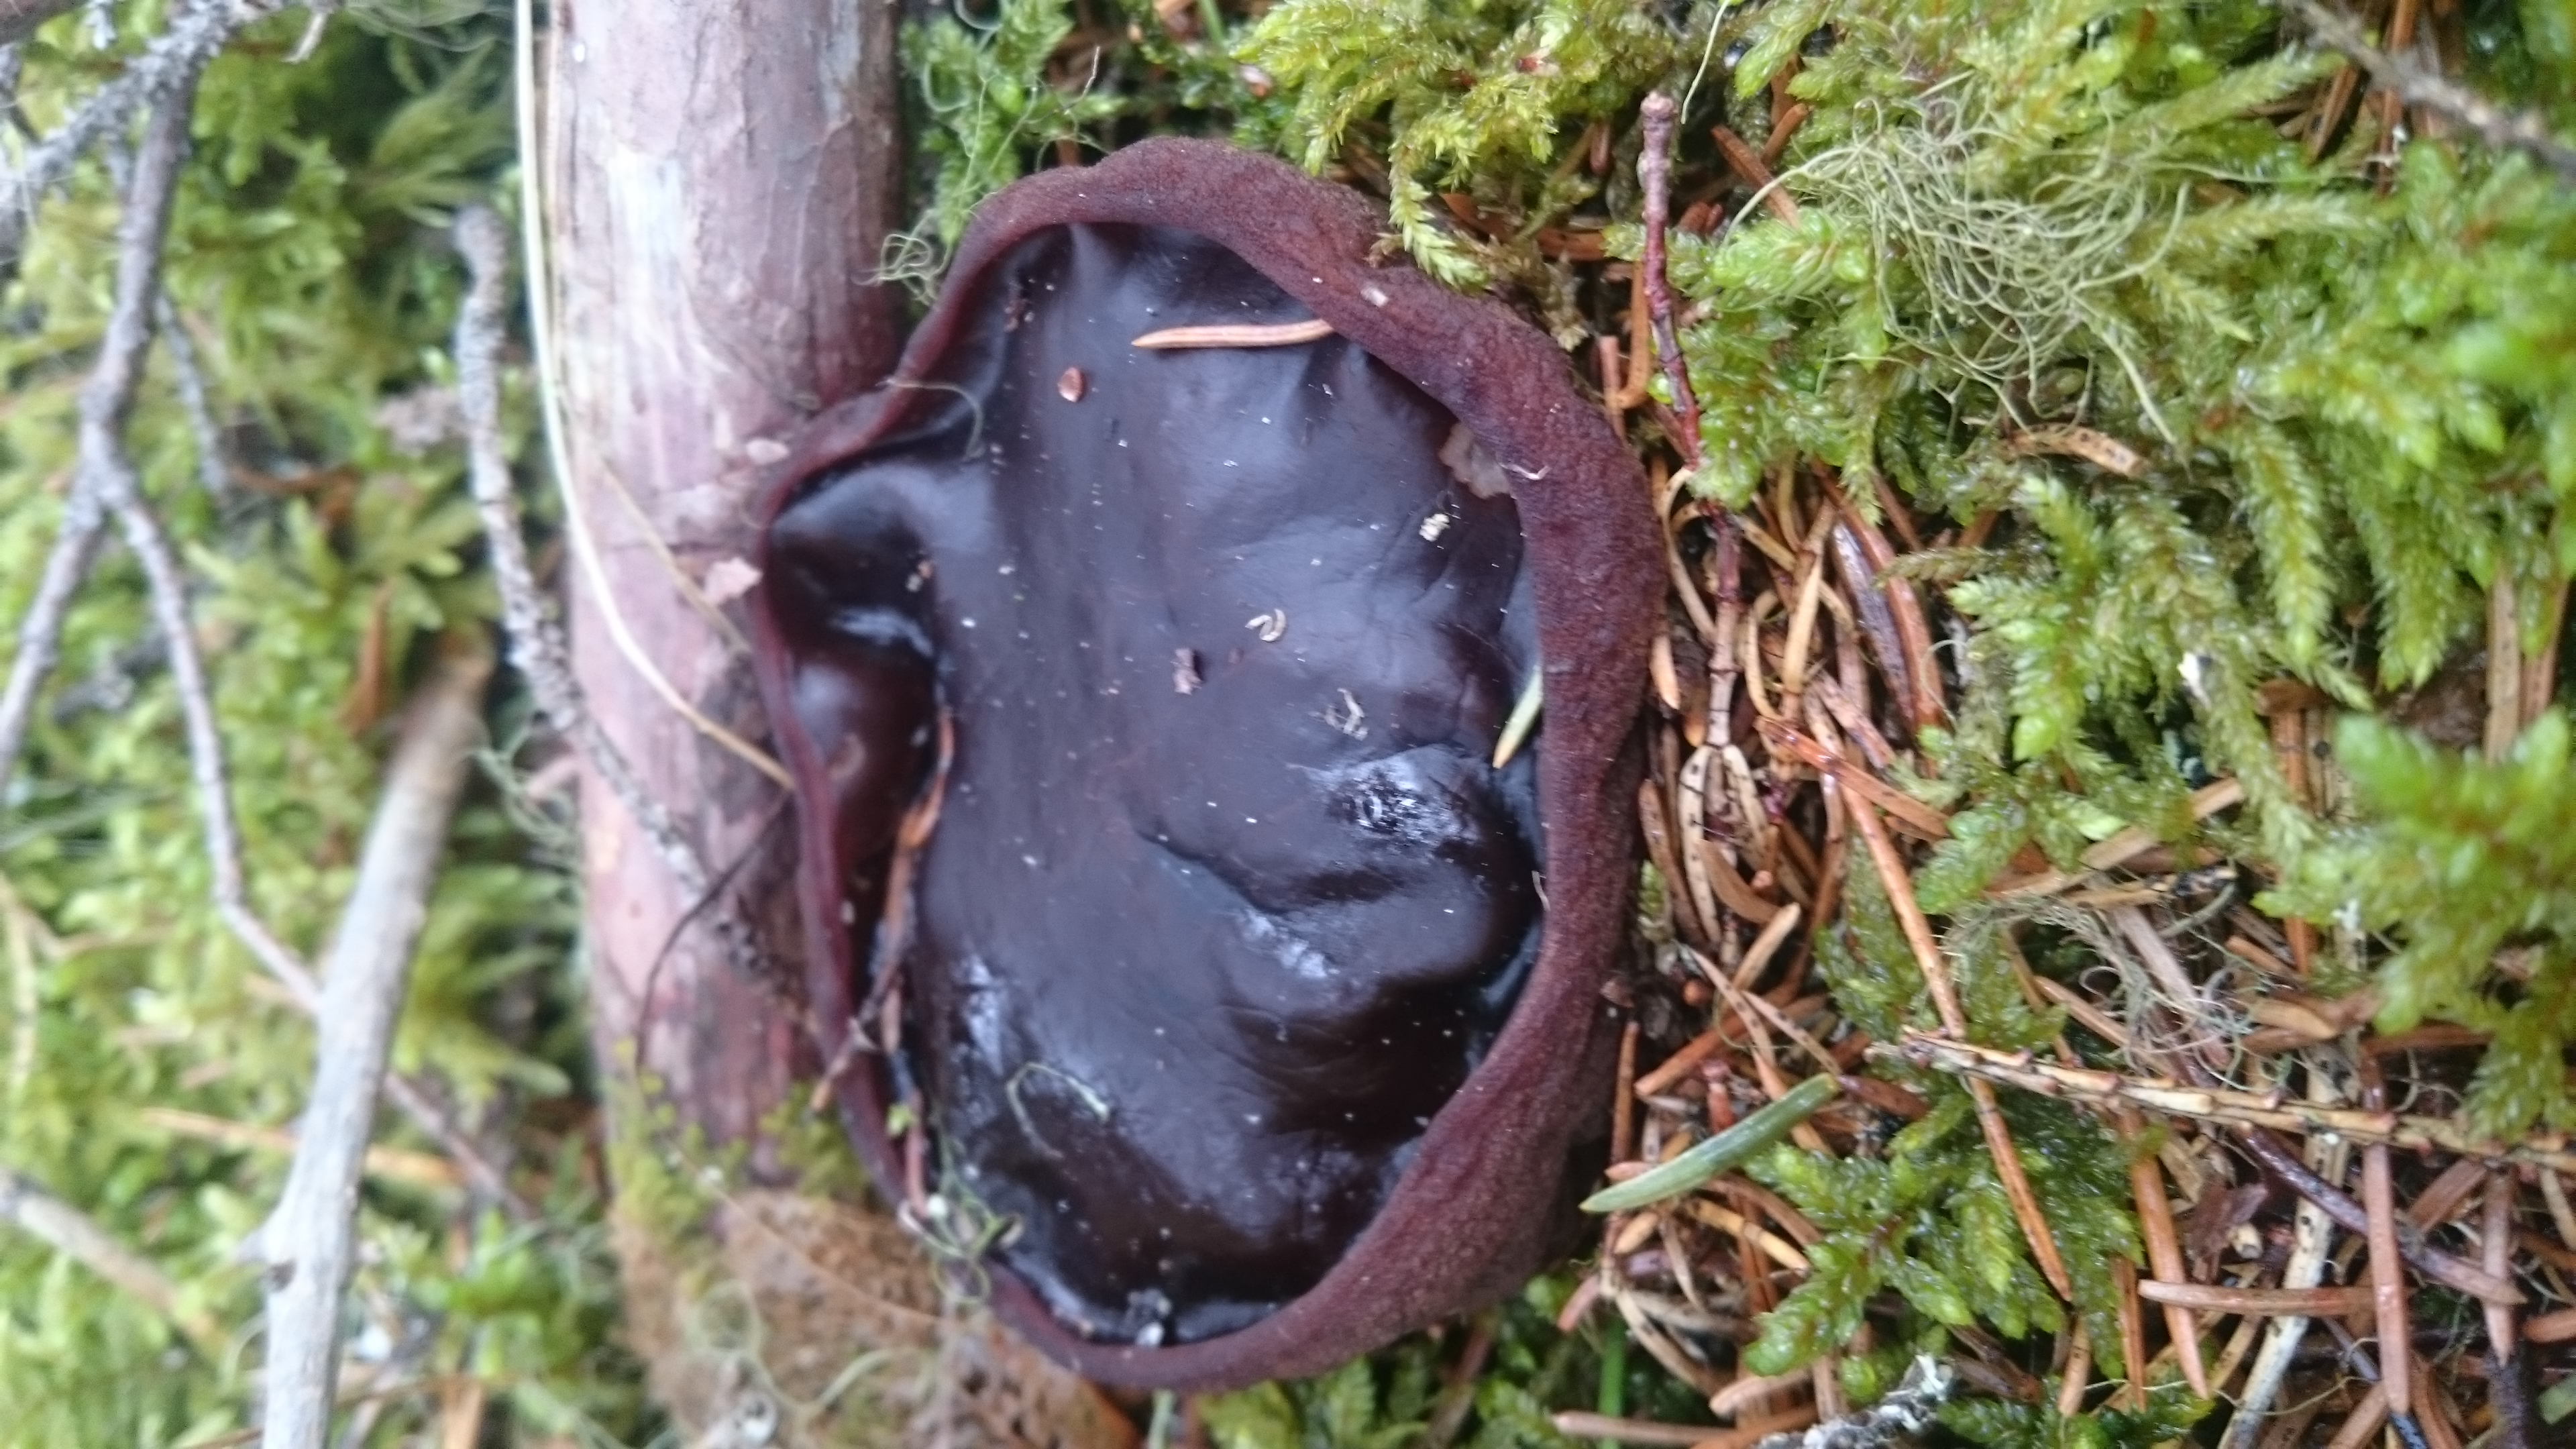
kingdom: Fungi
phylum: Ascomycota
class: Pezizomycetes
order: Pezizales
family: Sarcosomataceae
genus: Sarcosoma
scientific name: Sarcosoma globosum
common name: Charred-pancake cup
